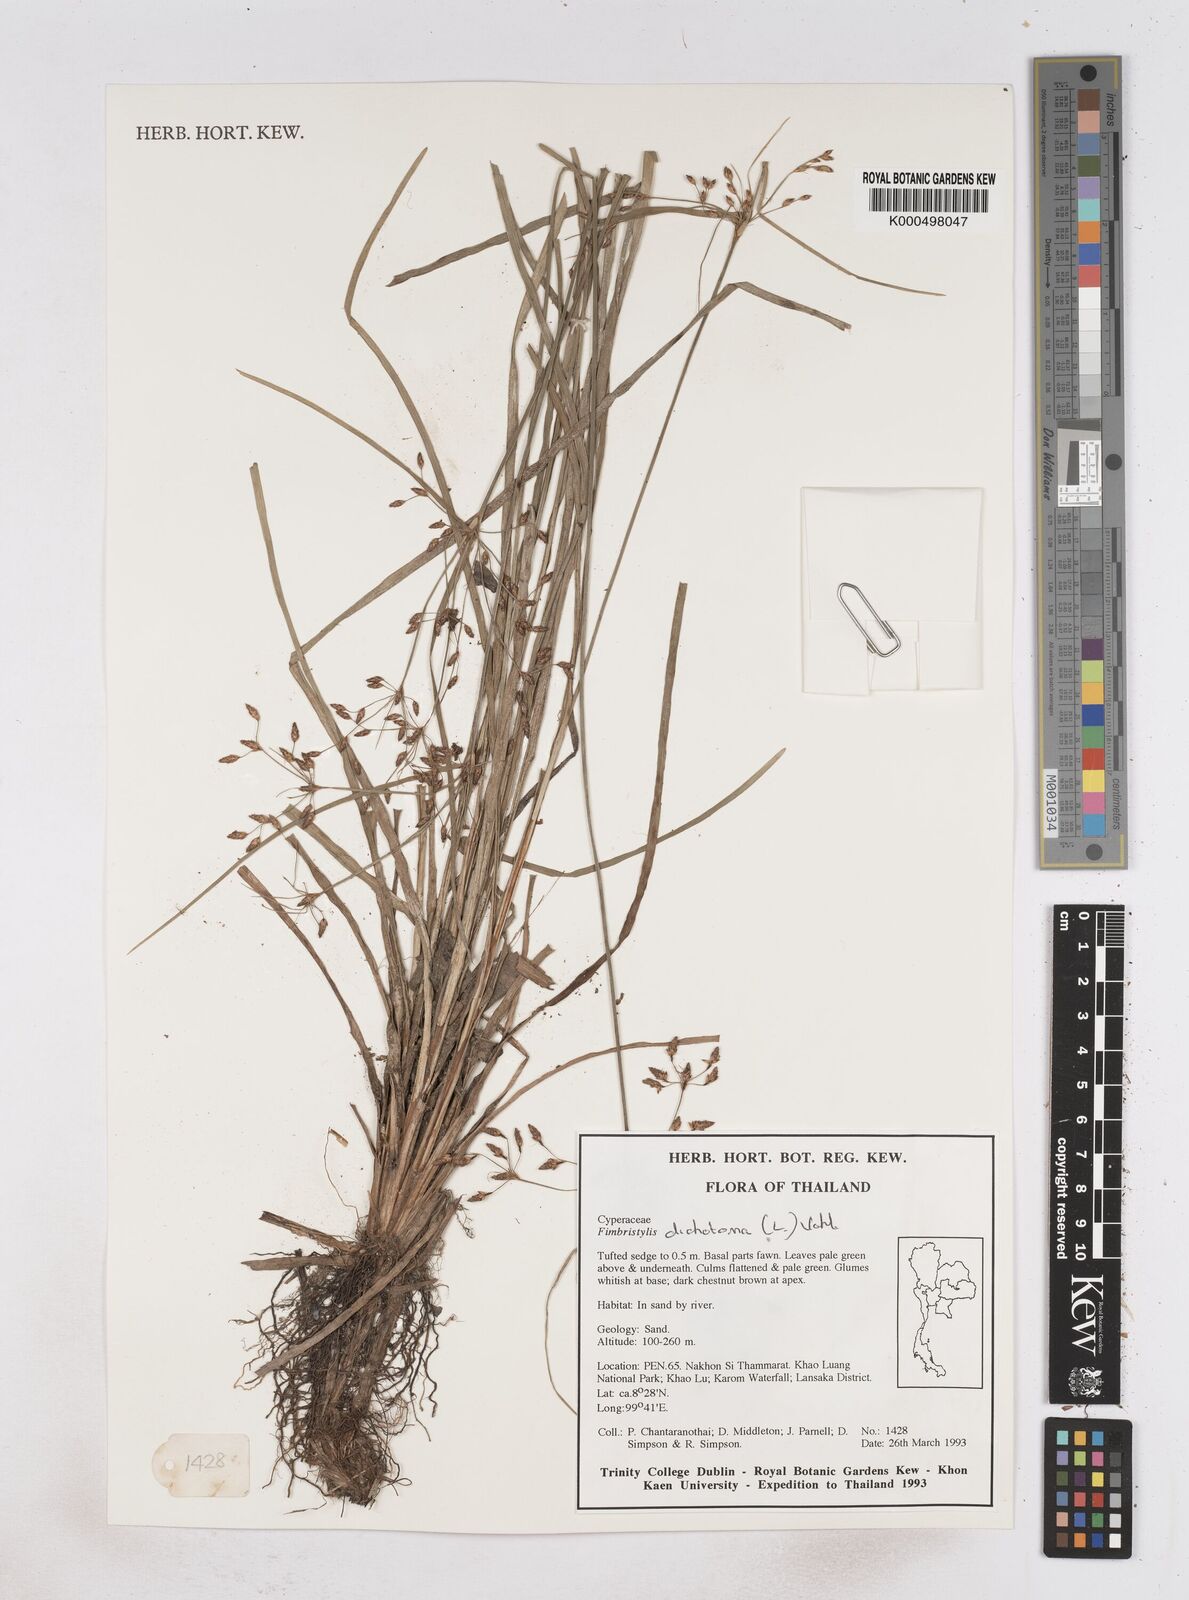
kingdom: Plantae
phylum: Tracheophyta
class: Liliopsida
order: Poales
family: Cyperaceae
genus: Fimbristylis
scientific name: Fimbristylis dichotoma
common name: Forked fimbry
